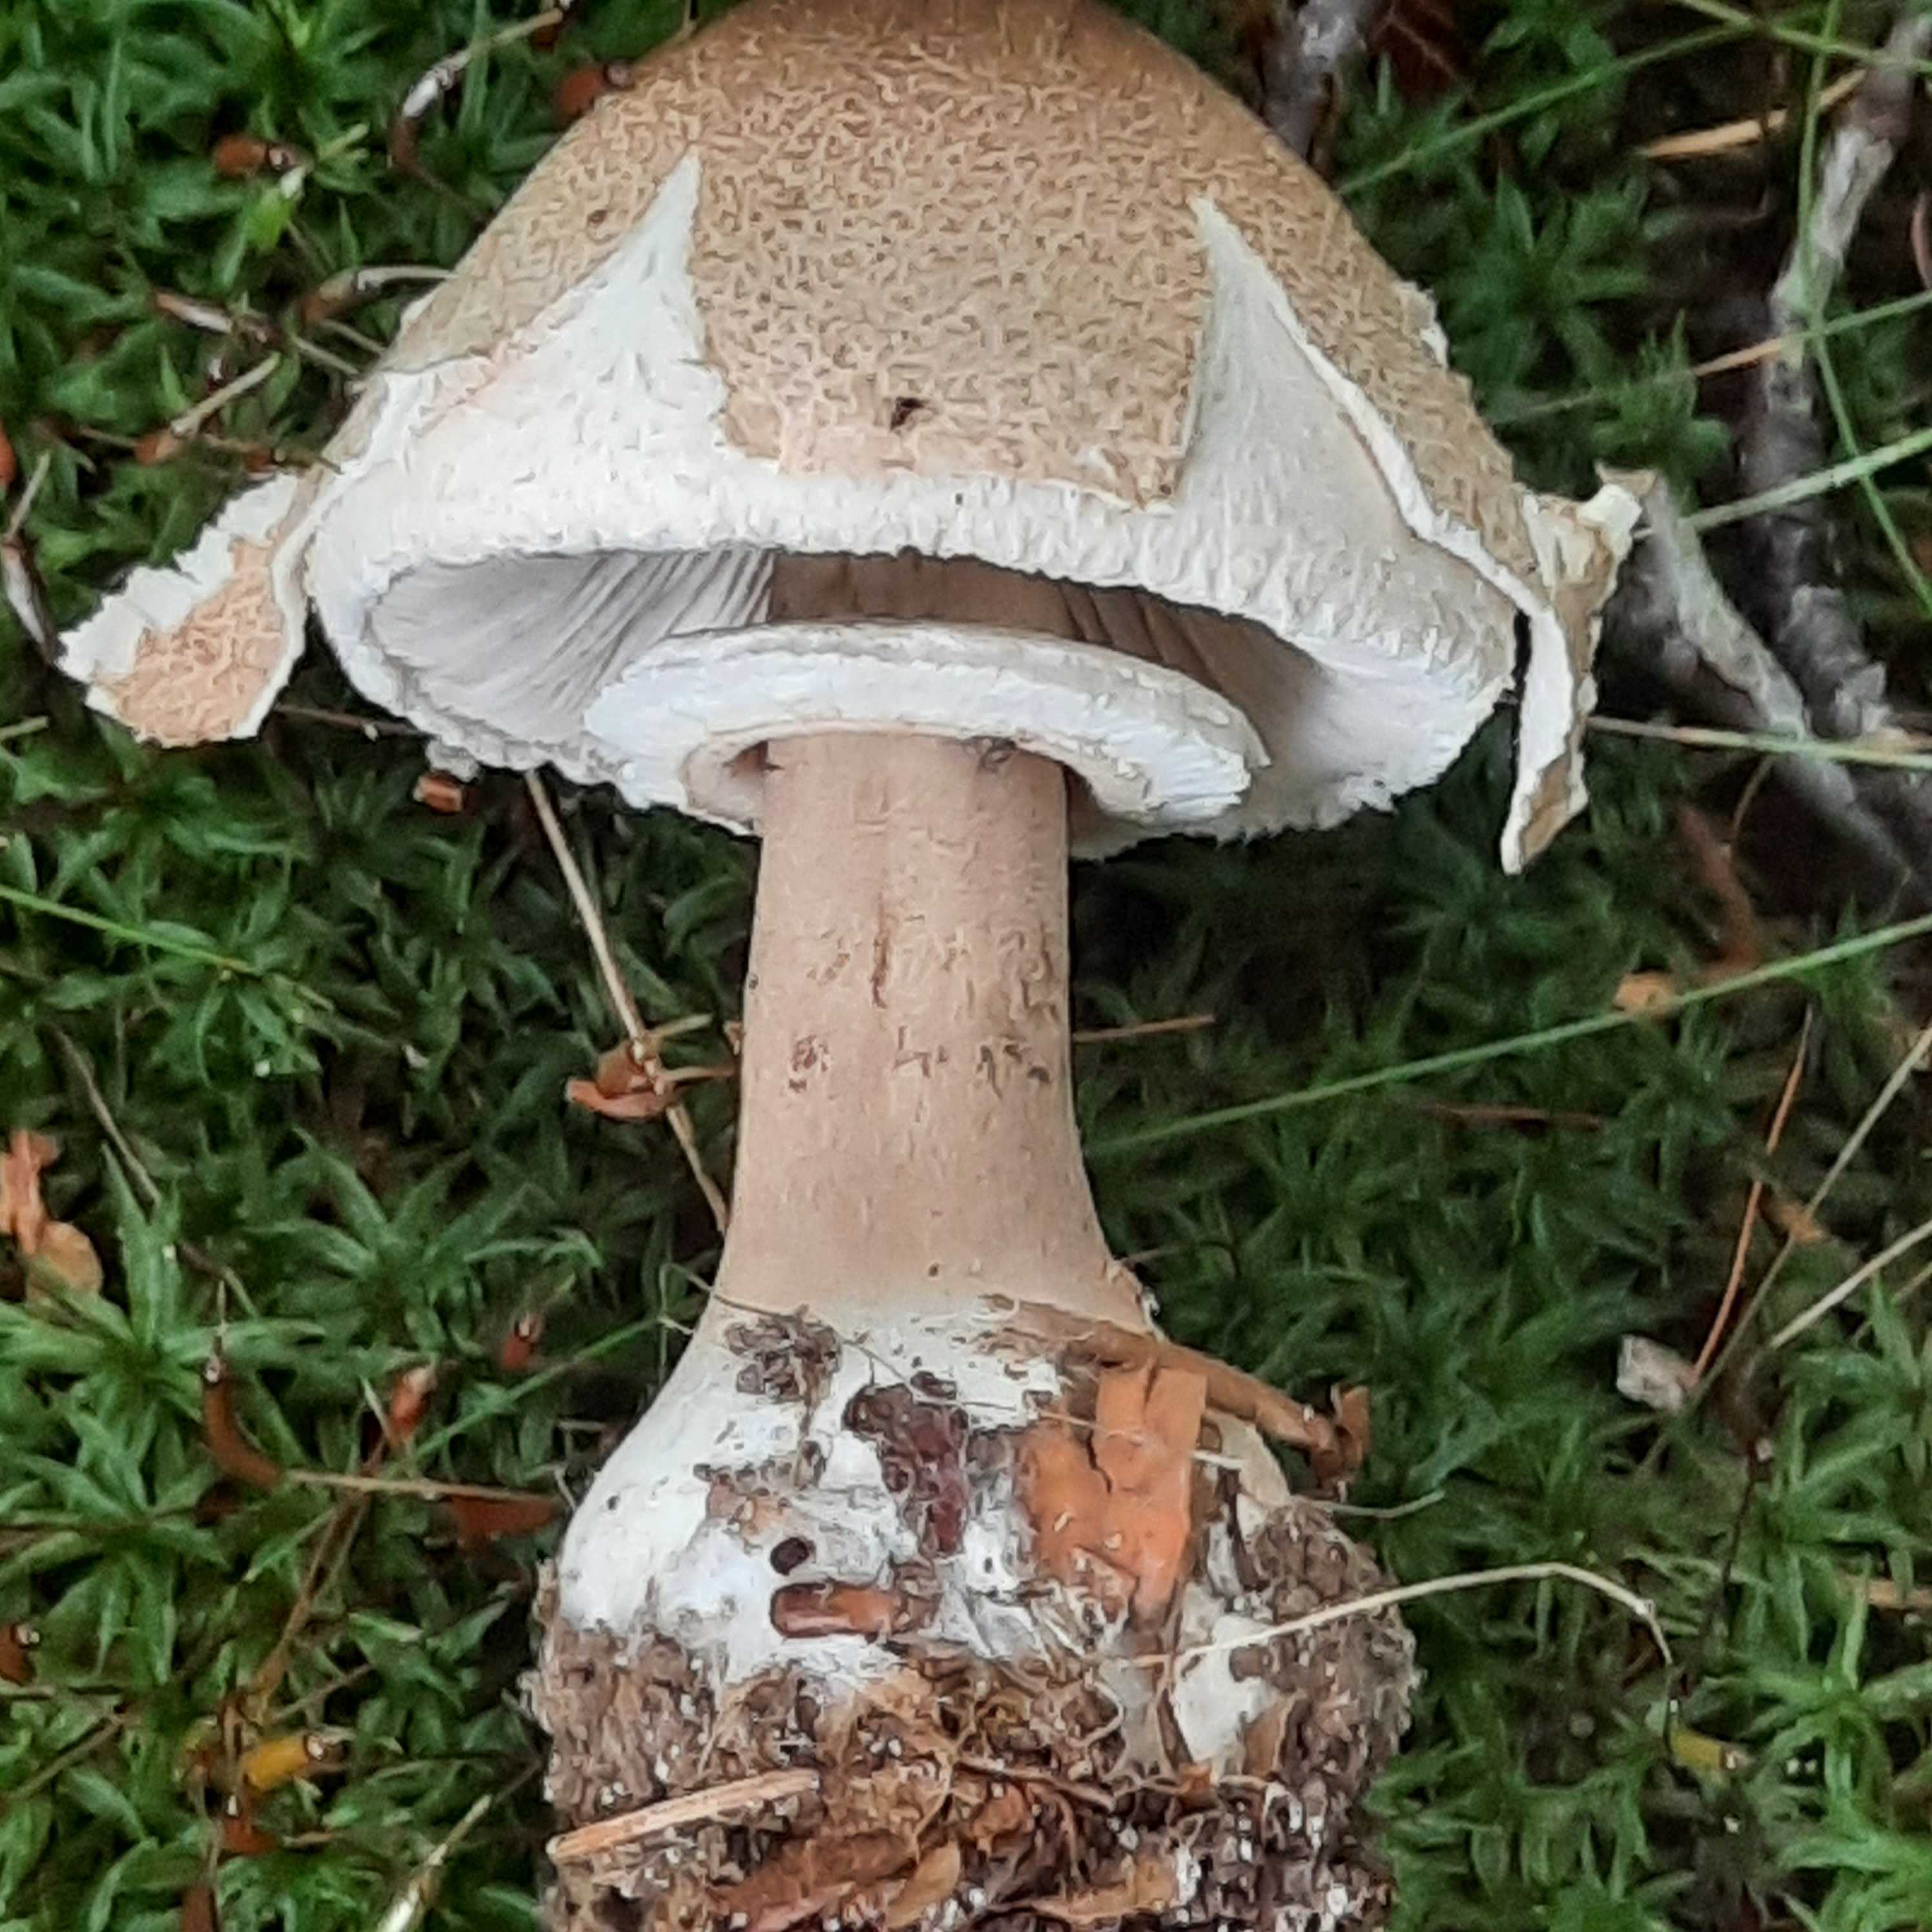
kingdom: Fungi
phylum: Basidiomycota
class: Agaricomycetes
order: Agaricales
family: Agaricaceae
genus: Macrolepiota
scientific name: Macrolepiota mastoidea
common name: puklet kæmpeparasolhat
